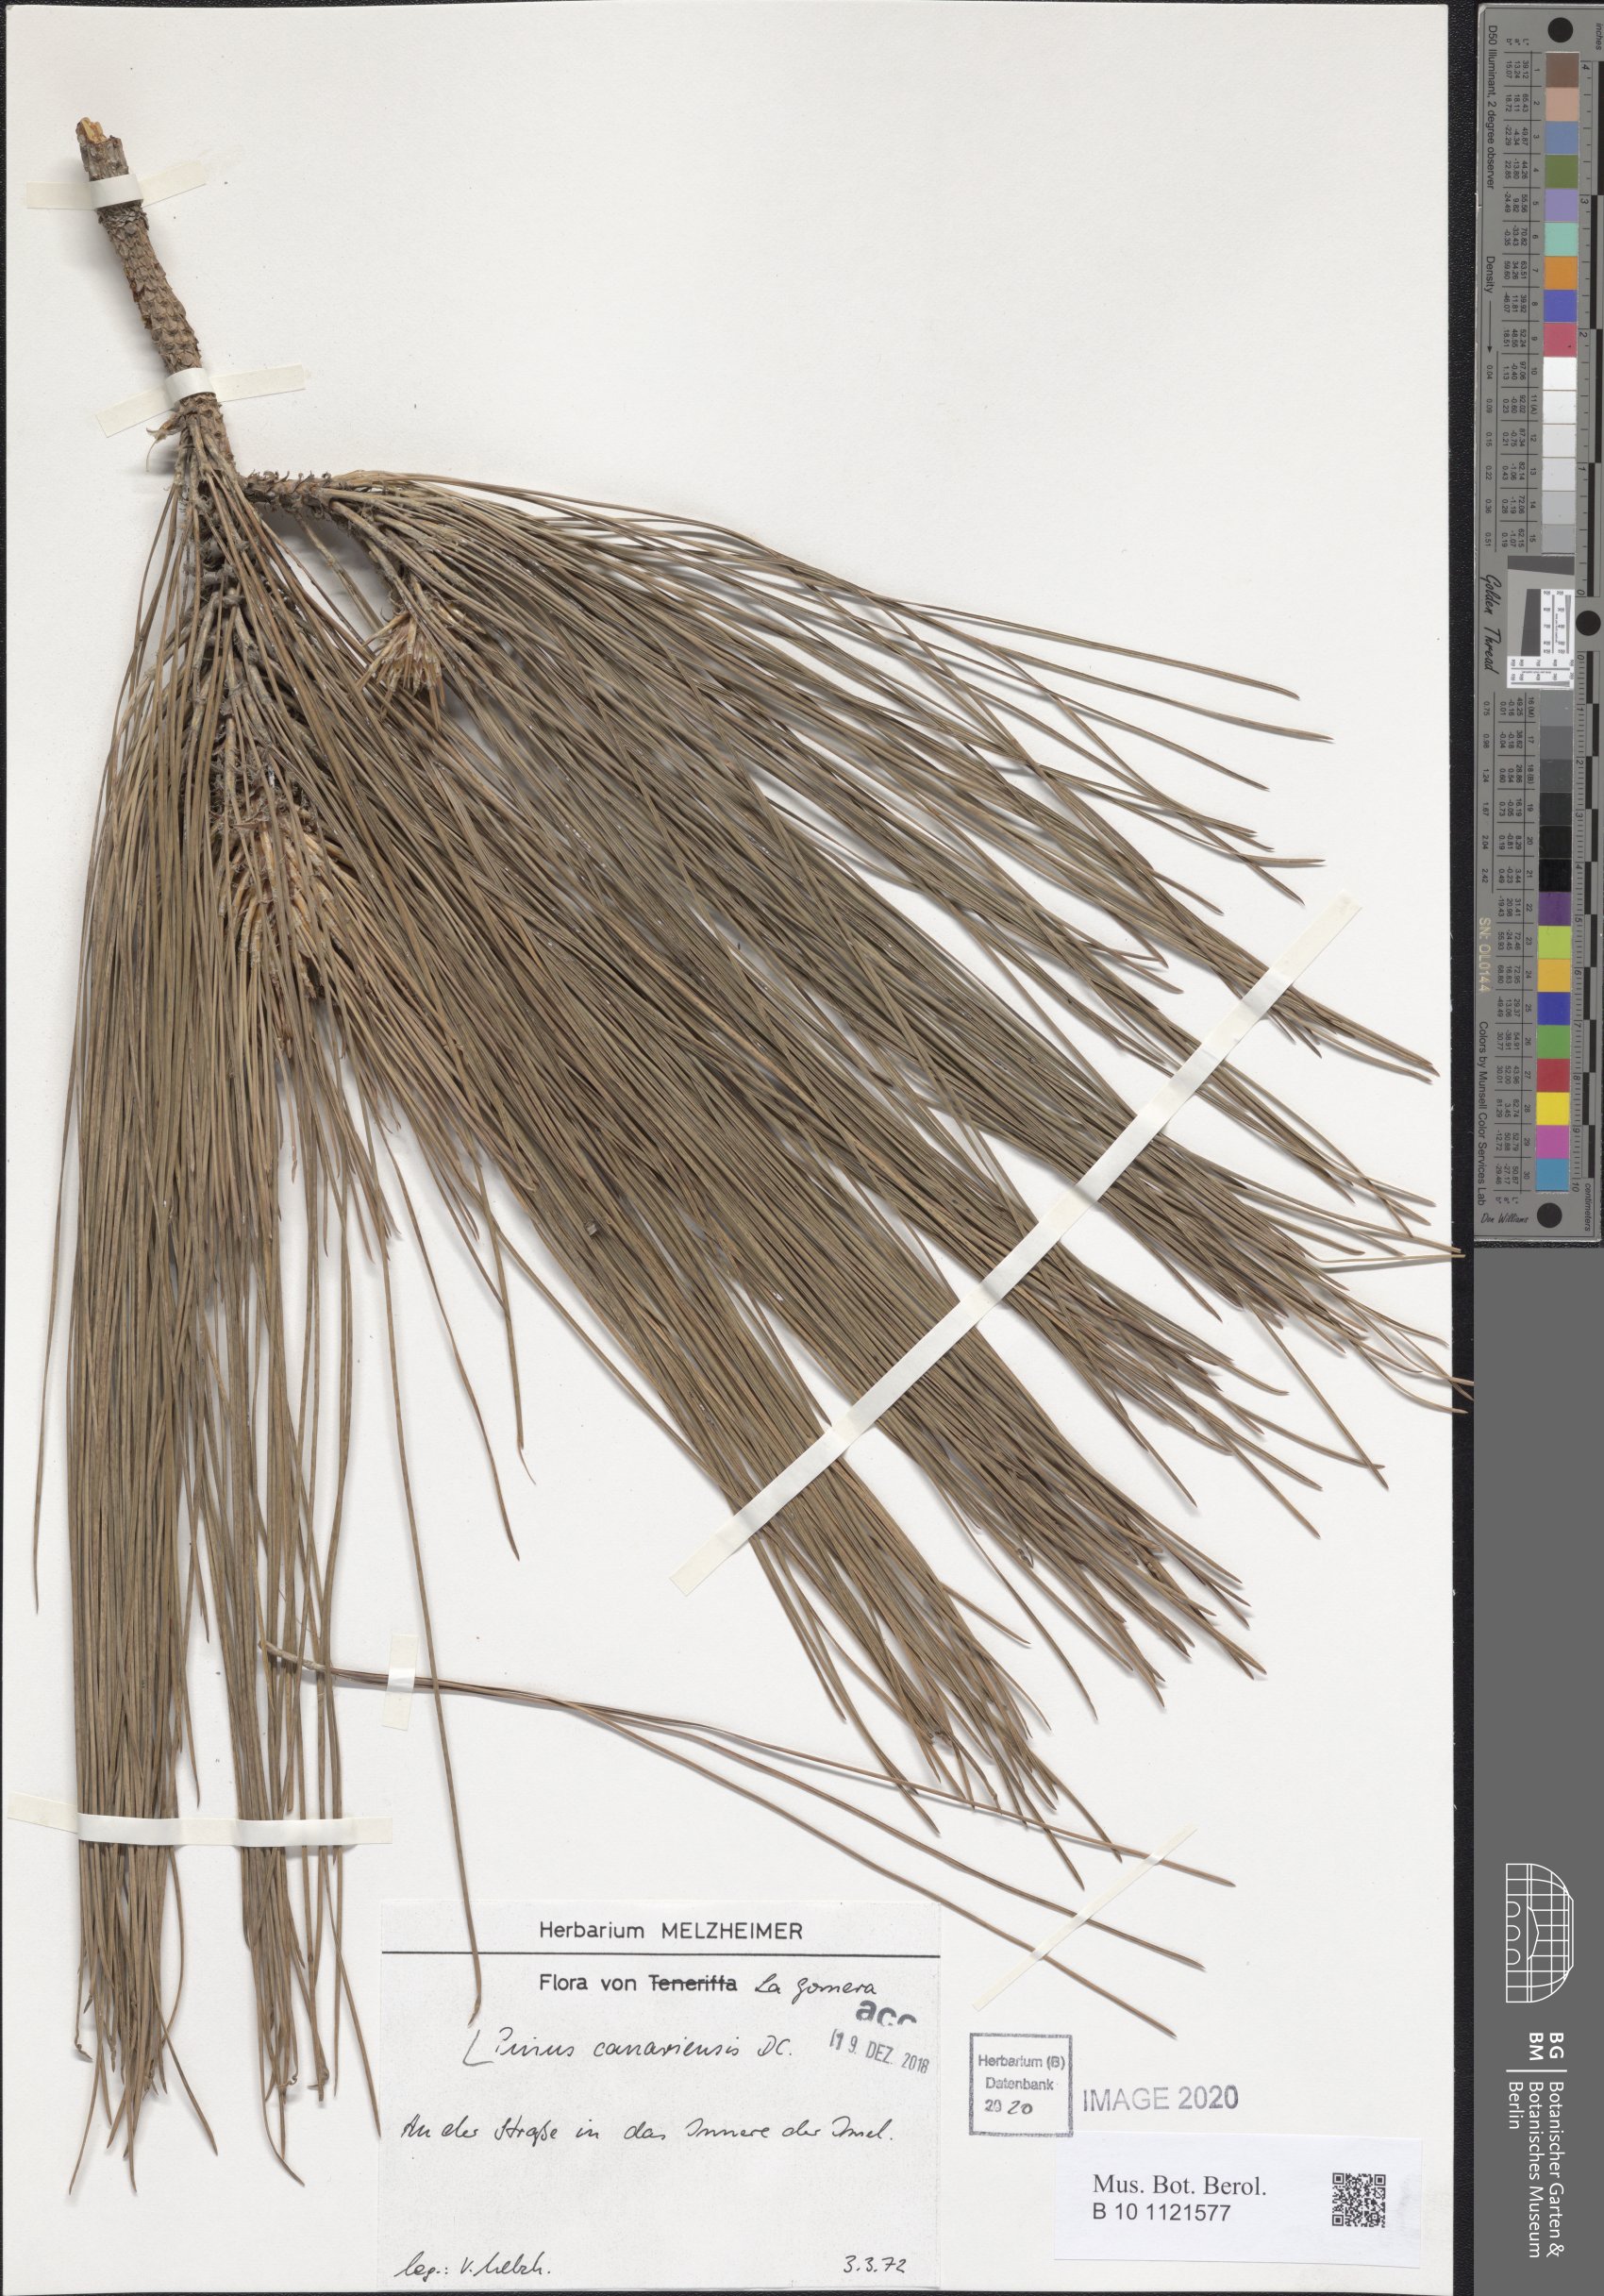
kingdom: Plantae
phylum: Tracheophyta
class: Pinopsida
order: Pinales
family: Pinaceae
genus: Pinus
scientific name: Pinus canariensis
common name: Canary islands pine
